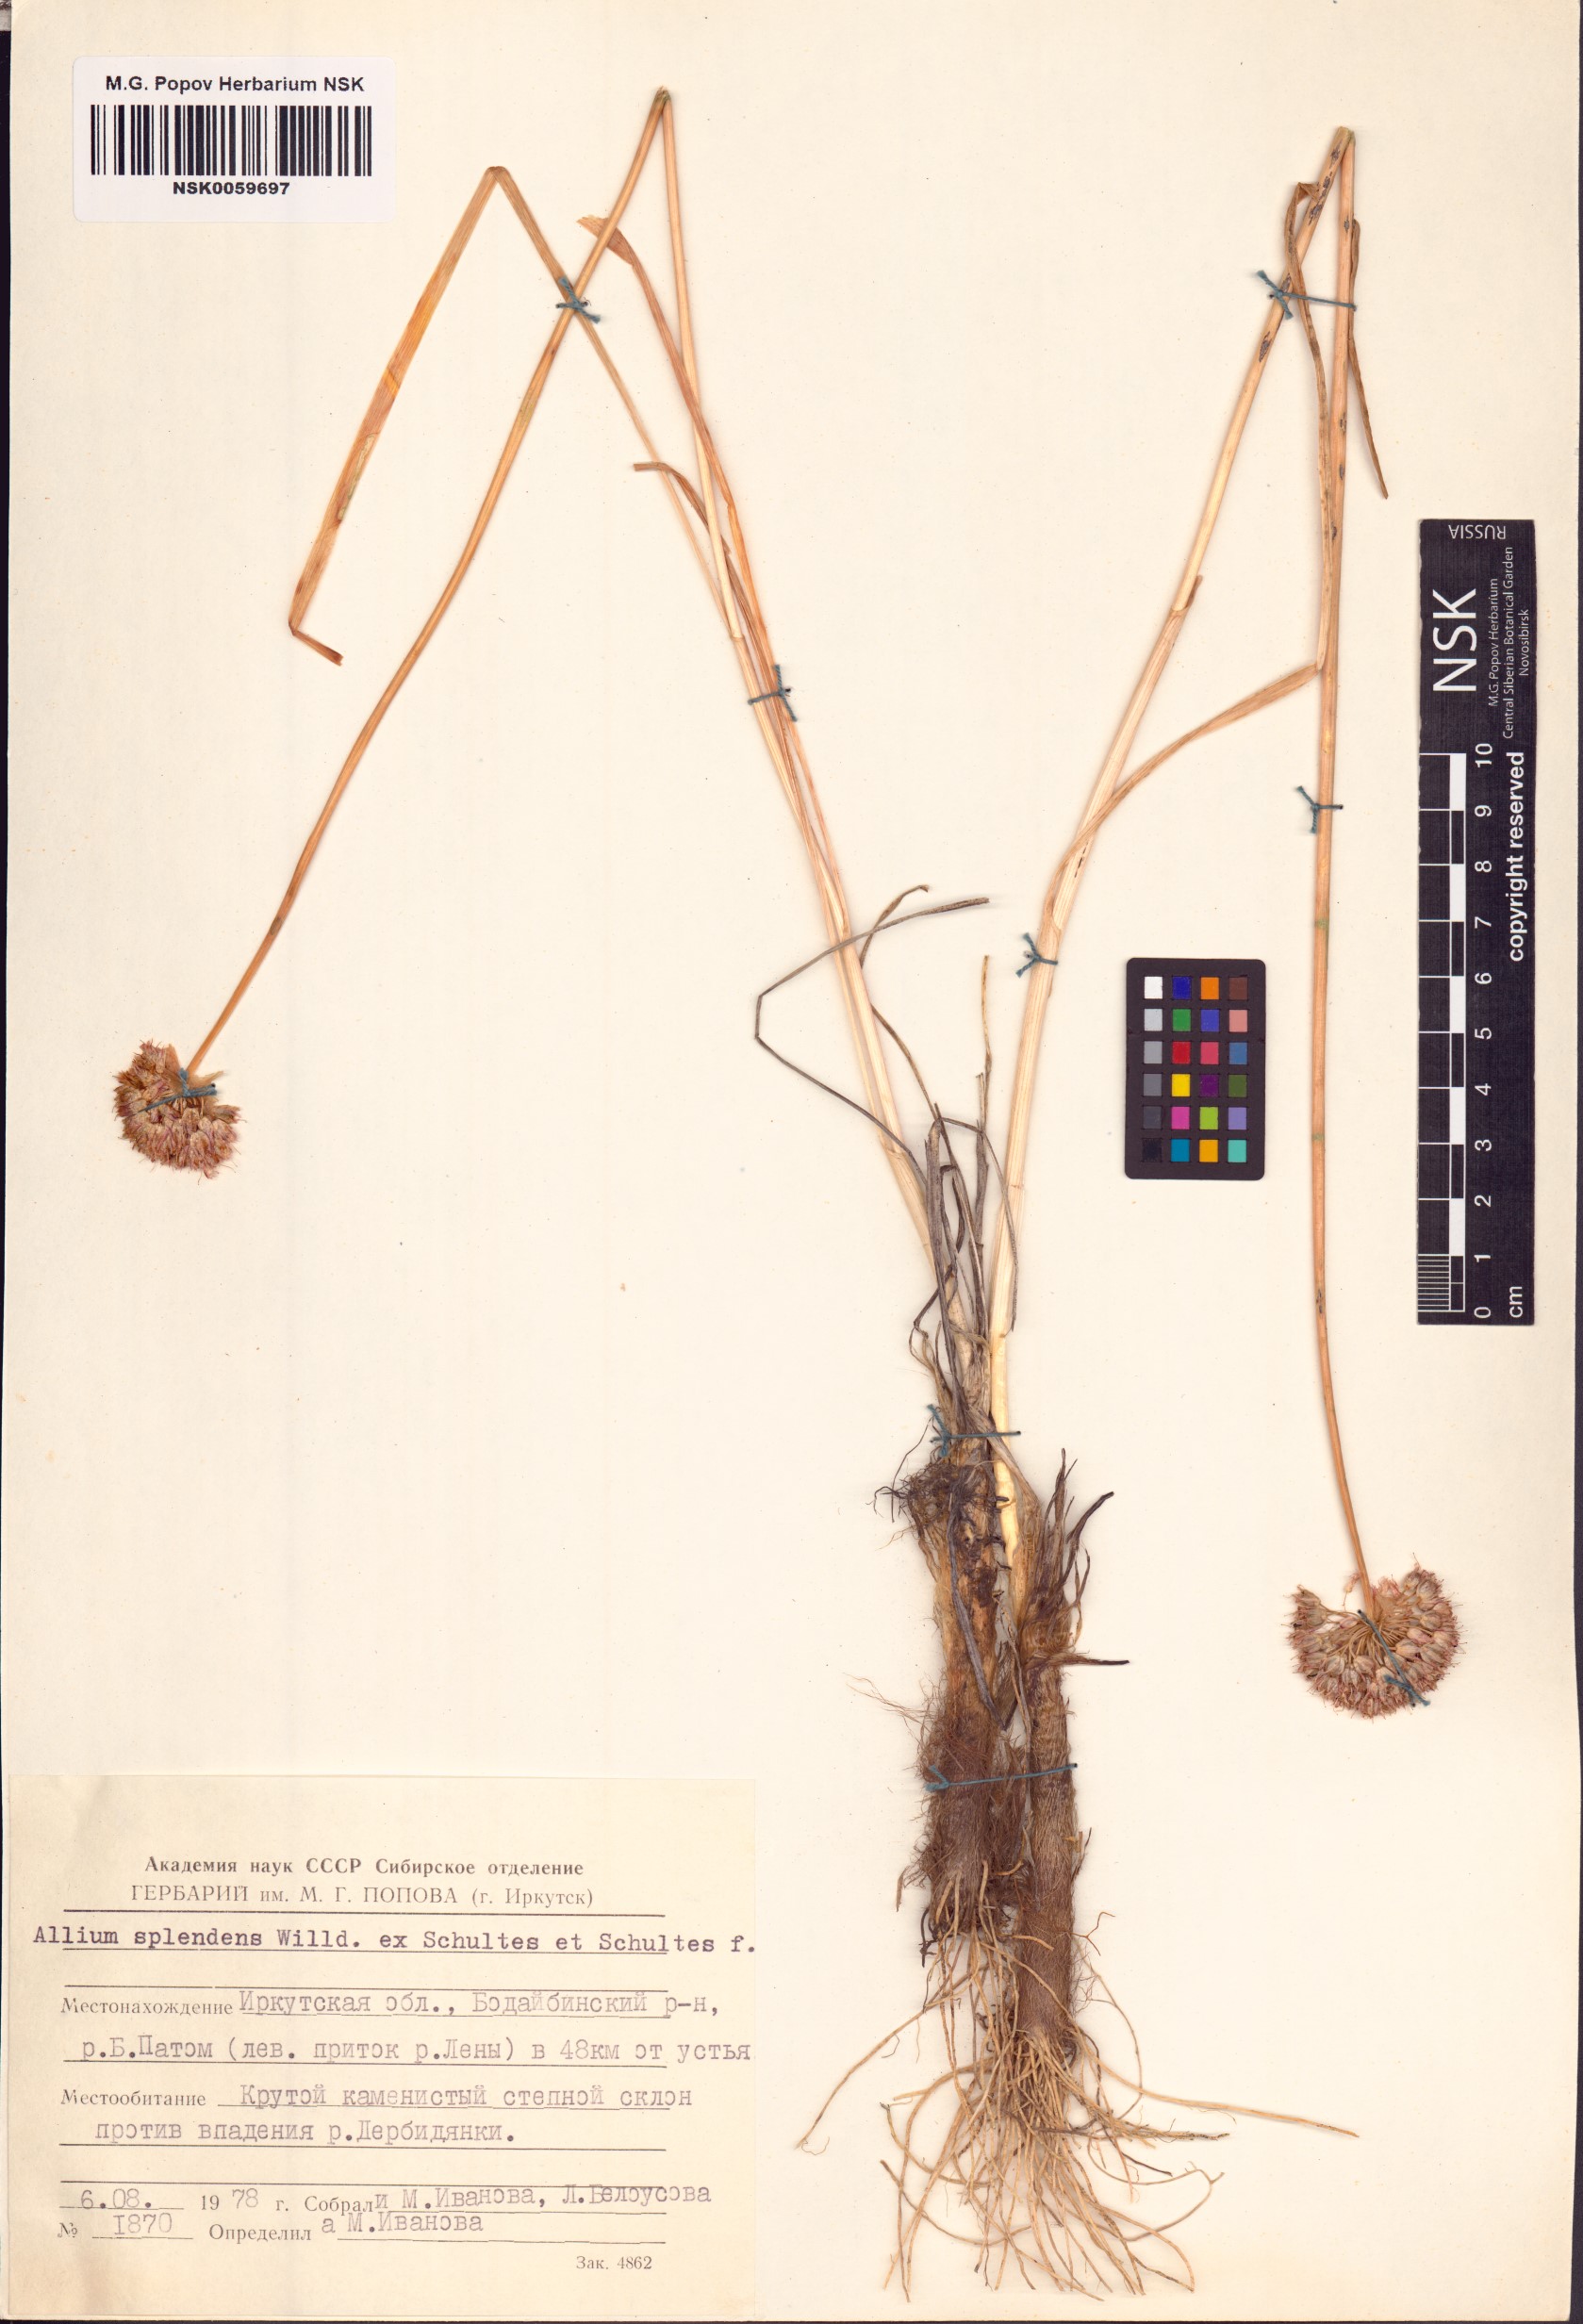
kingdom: Plantae
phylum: Tracheophyta
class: Liliopsida
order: Asparagales
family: Amaryllidaceae
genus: Allium
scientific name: Allium splendens
